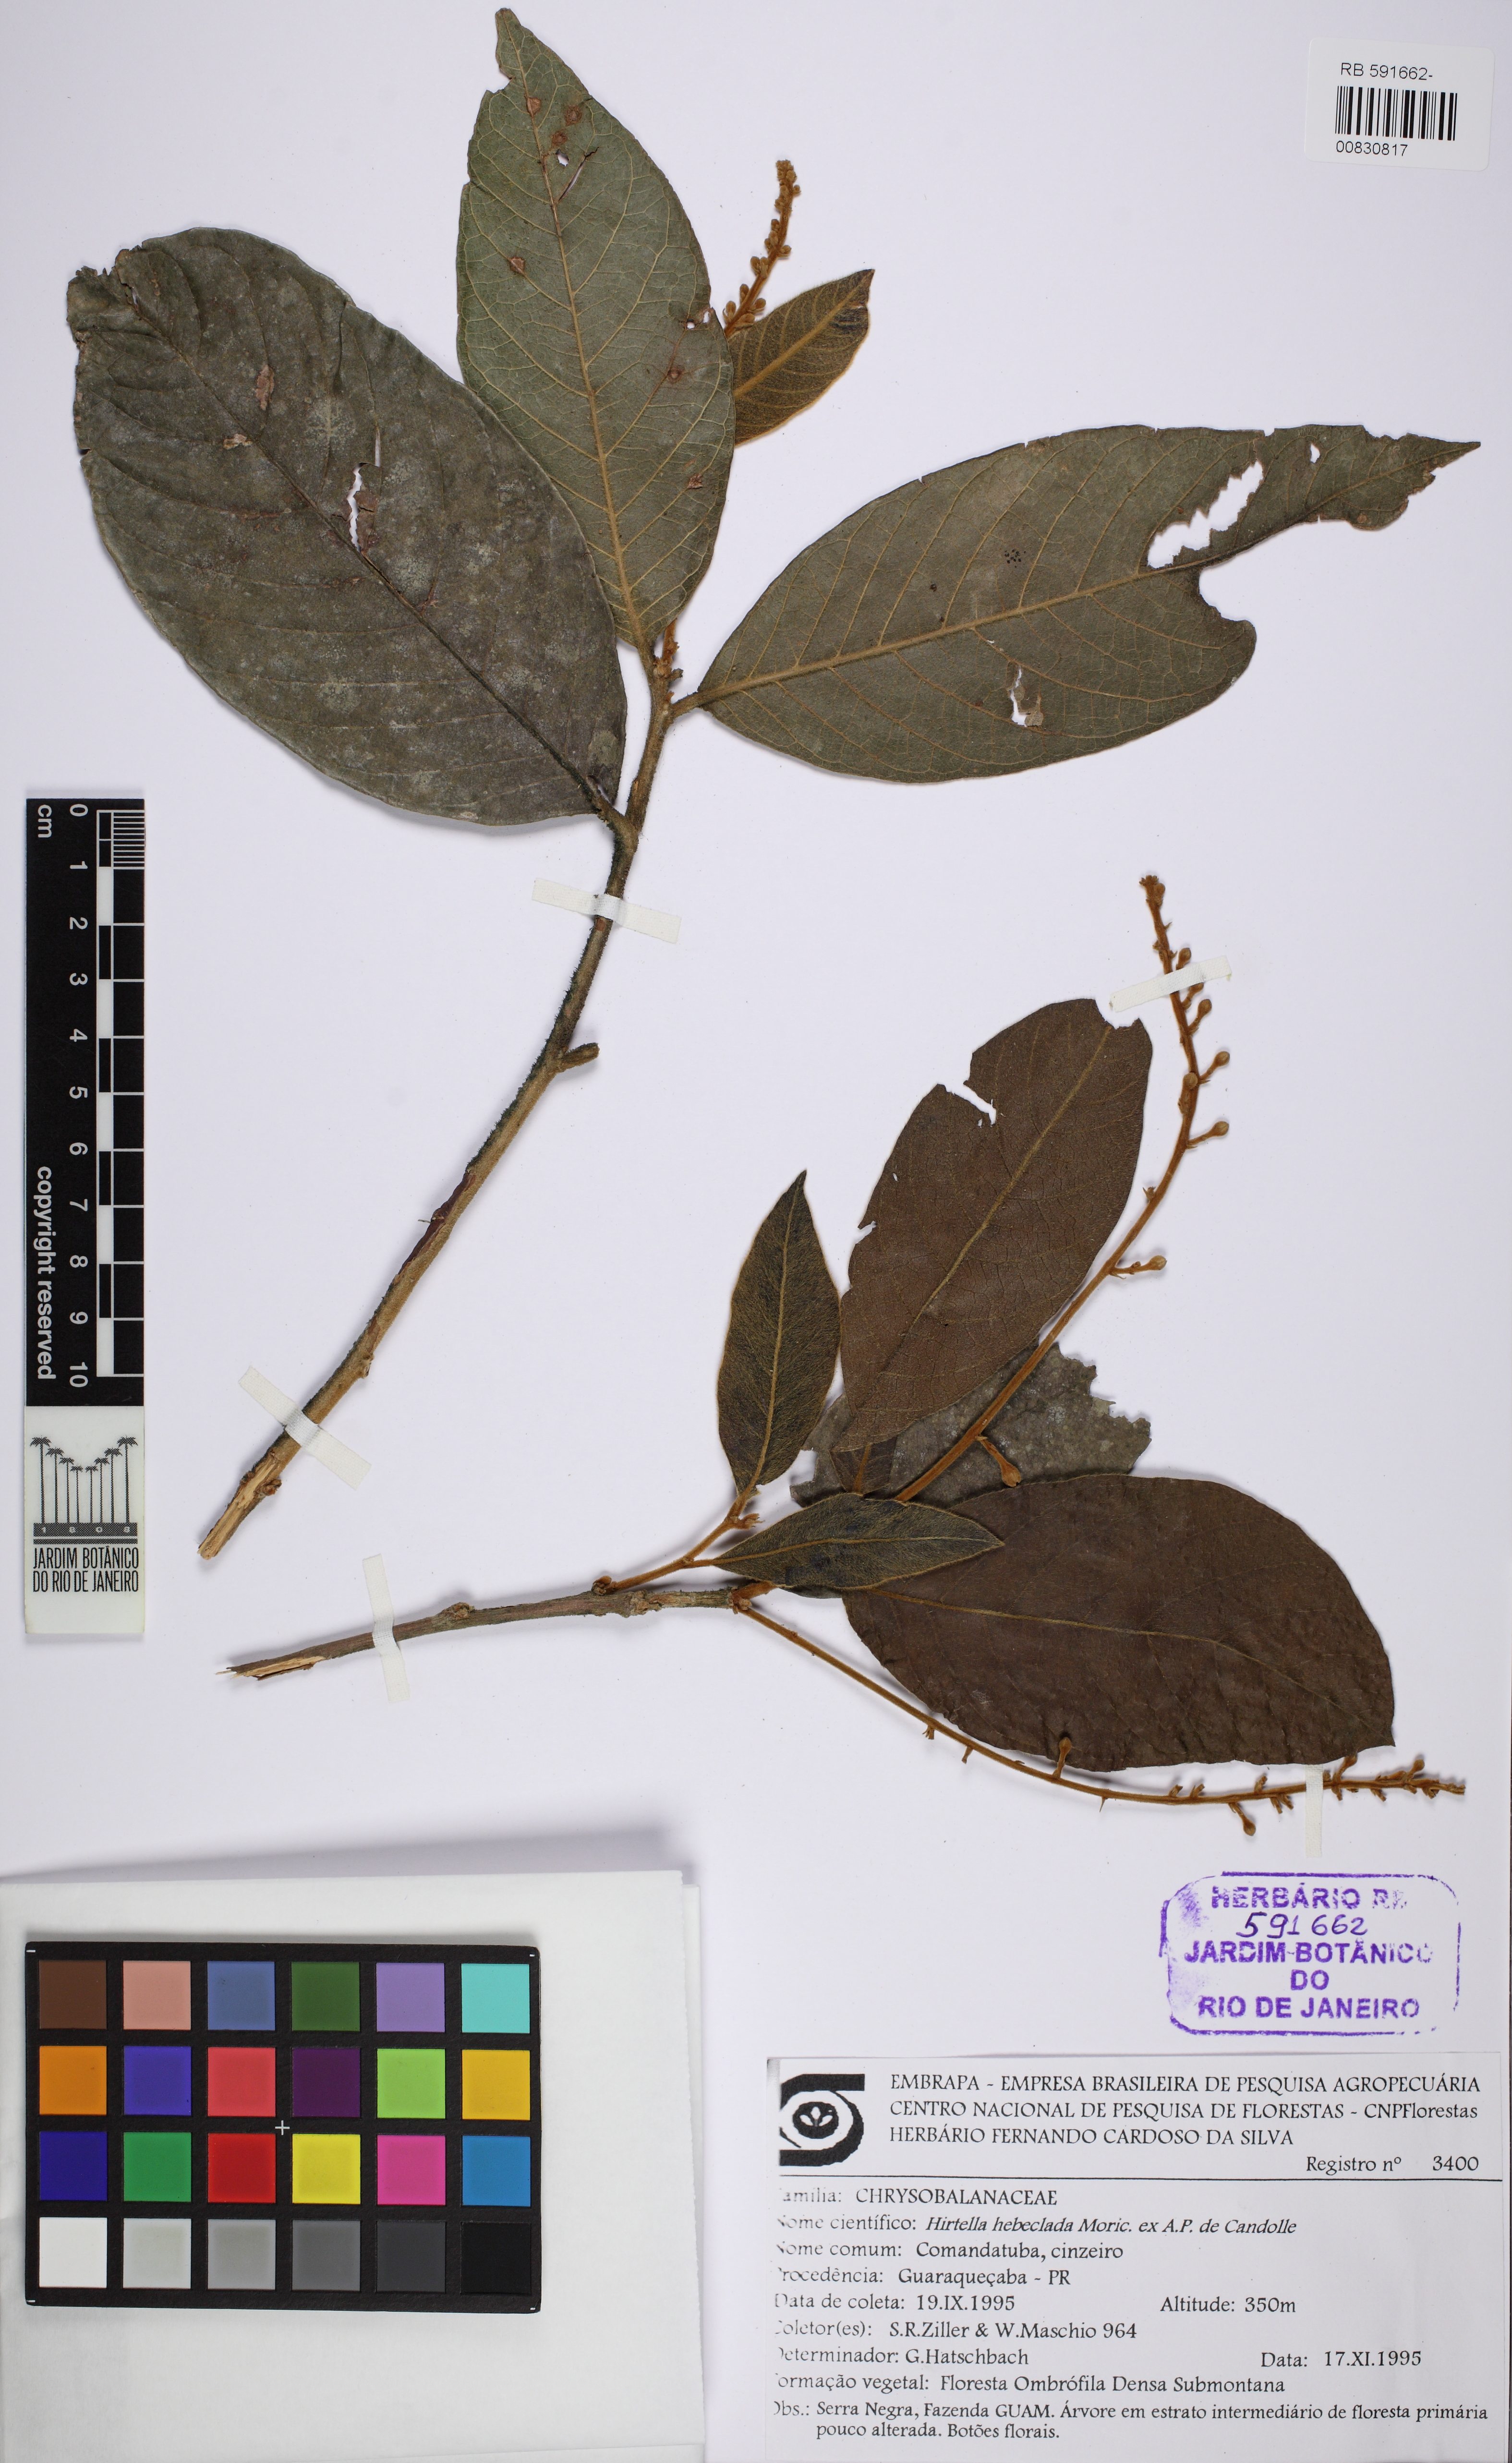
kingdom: Plantae
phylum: Tracheophyta
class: Magnoliopsida
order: Malpighiales
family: Chrysobalanaceae
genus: Hirtella
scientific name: Hirtella hebeclada
